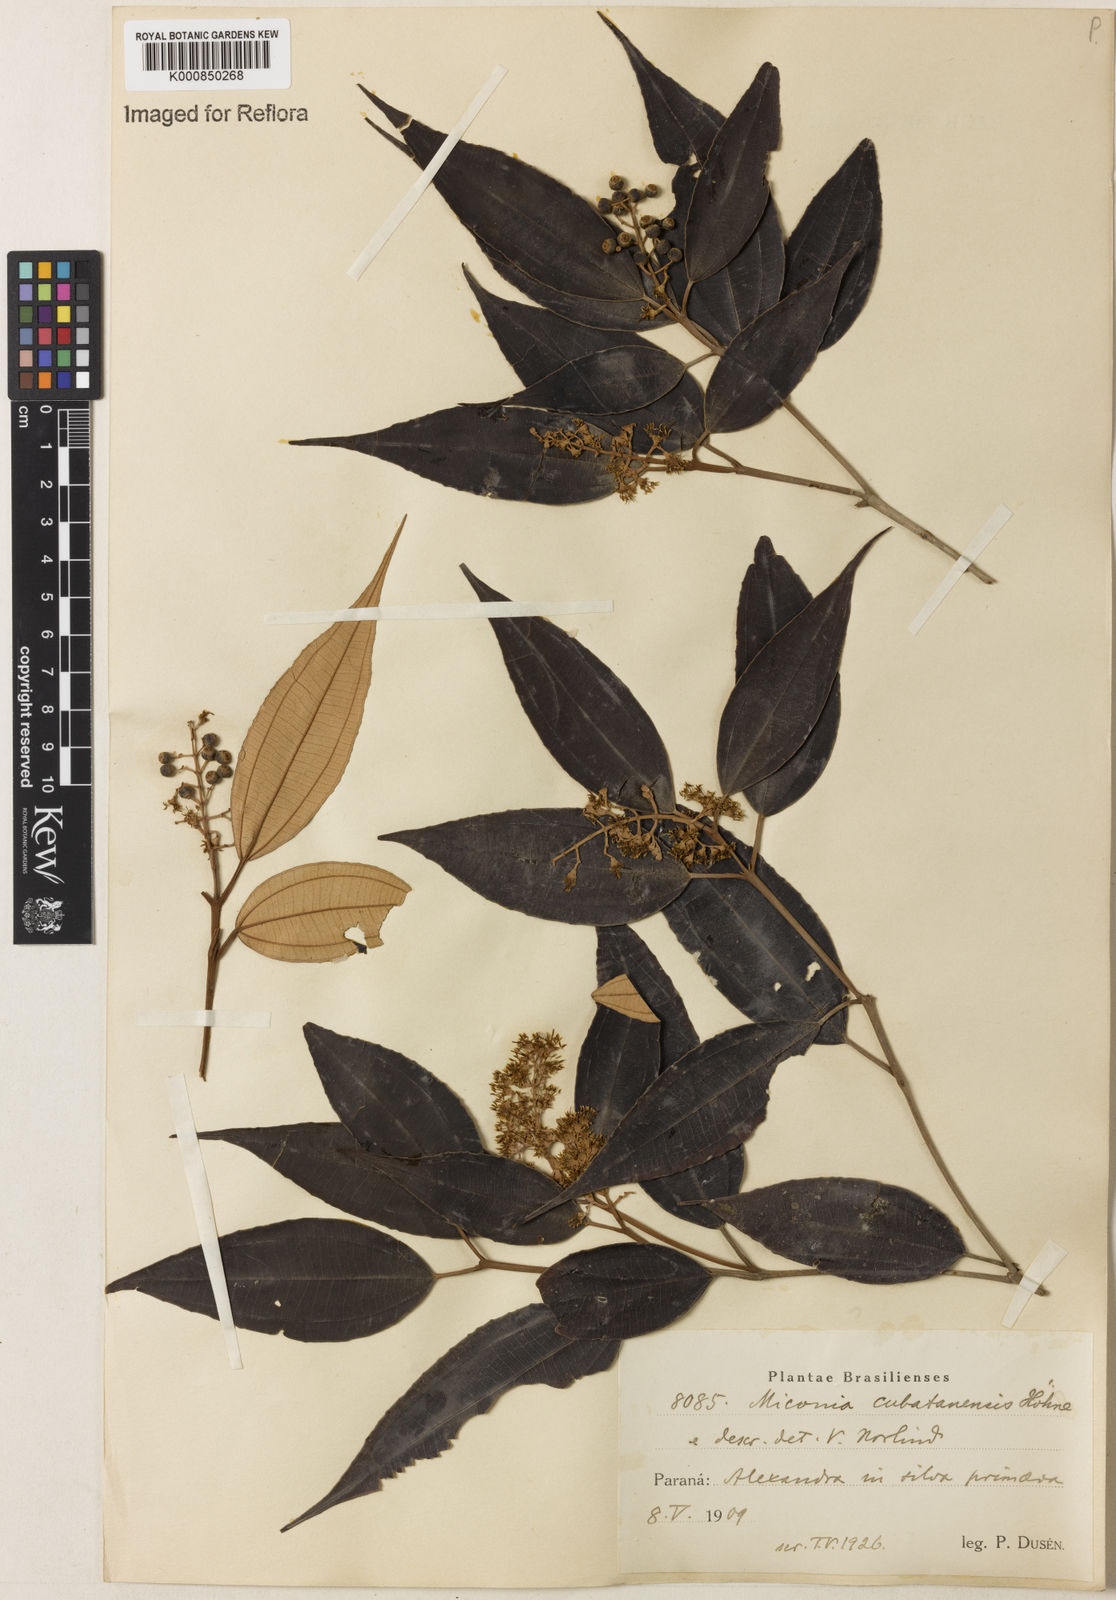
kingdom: Plantae
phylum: Tracheophyta
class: Magnoliopsida
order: Myrtales
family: Melastomataceae
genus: Miconia
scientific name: Miconia cubatanensis
